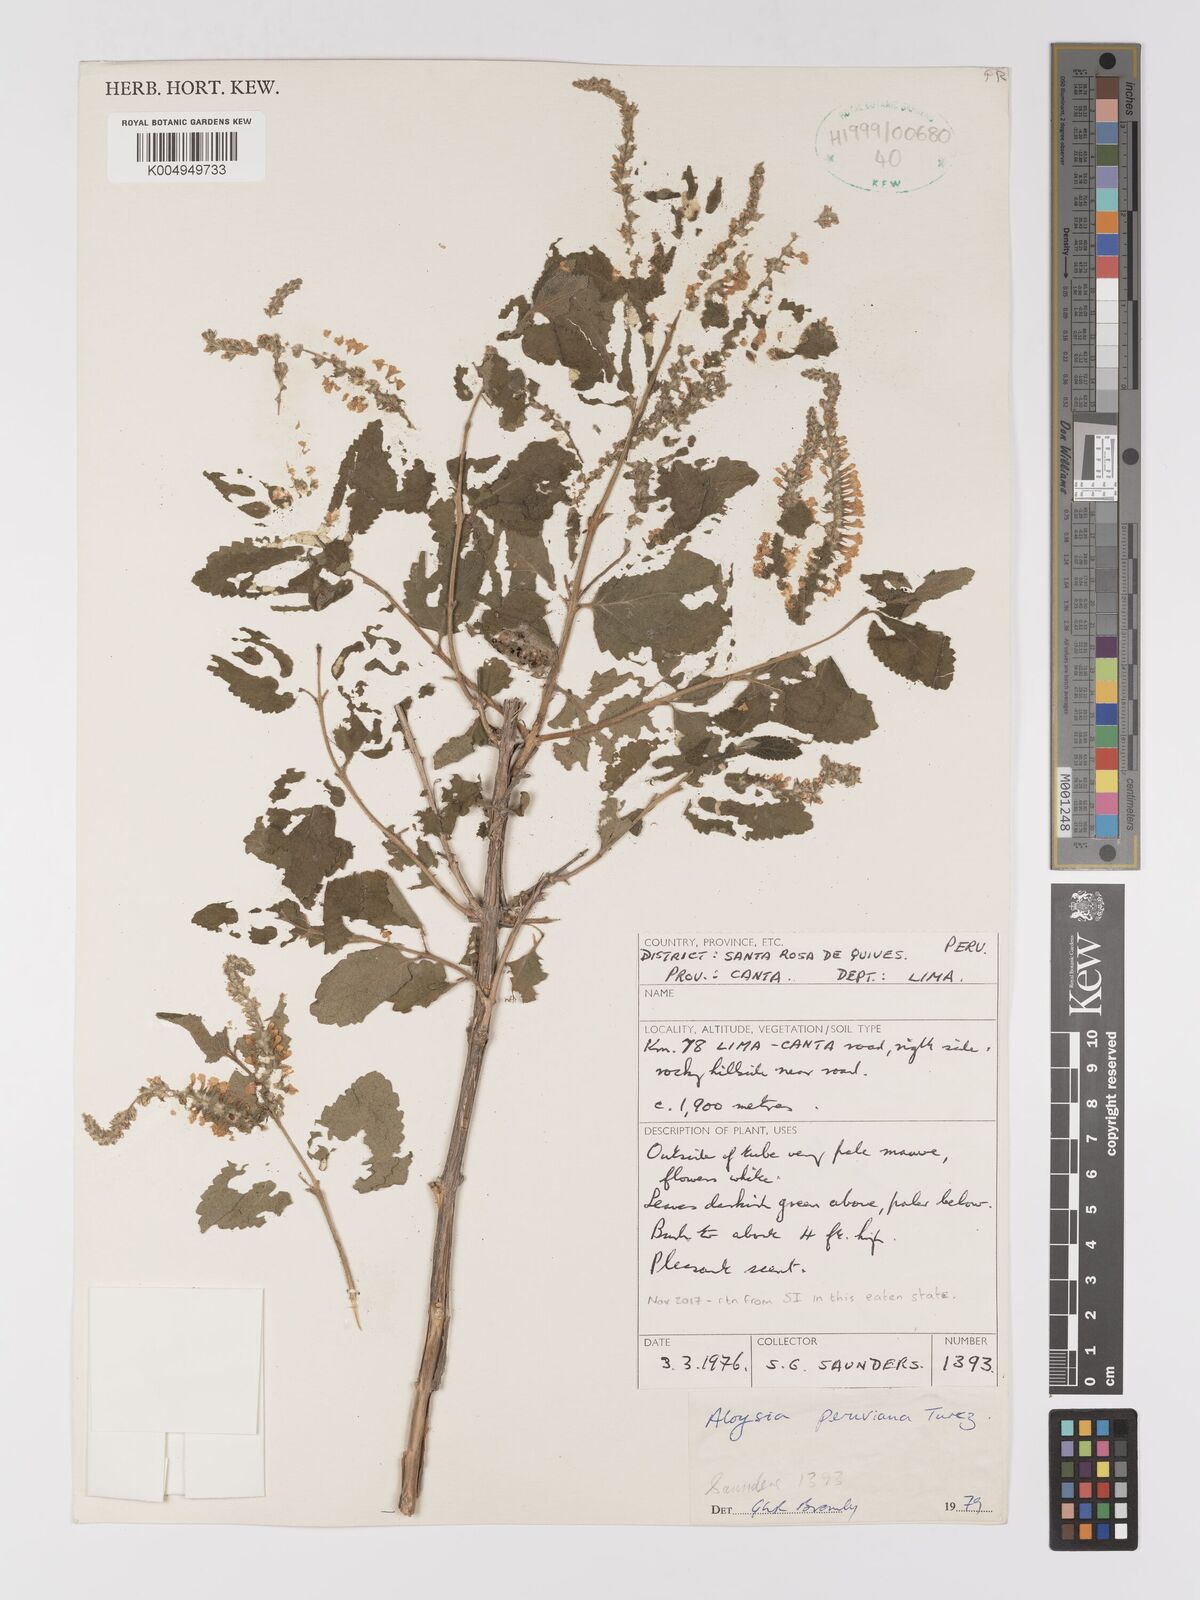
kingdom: Plantae
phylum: Tracheophyta
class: Magnoliopsida
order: Lamiales
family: Verbenaceae
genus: Aloysia
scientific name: Aloysia peruviana
